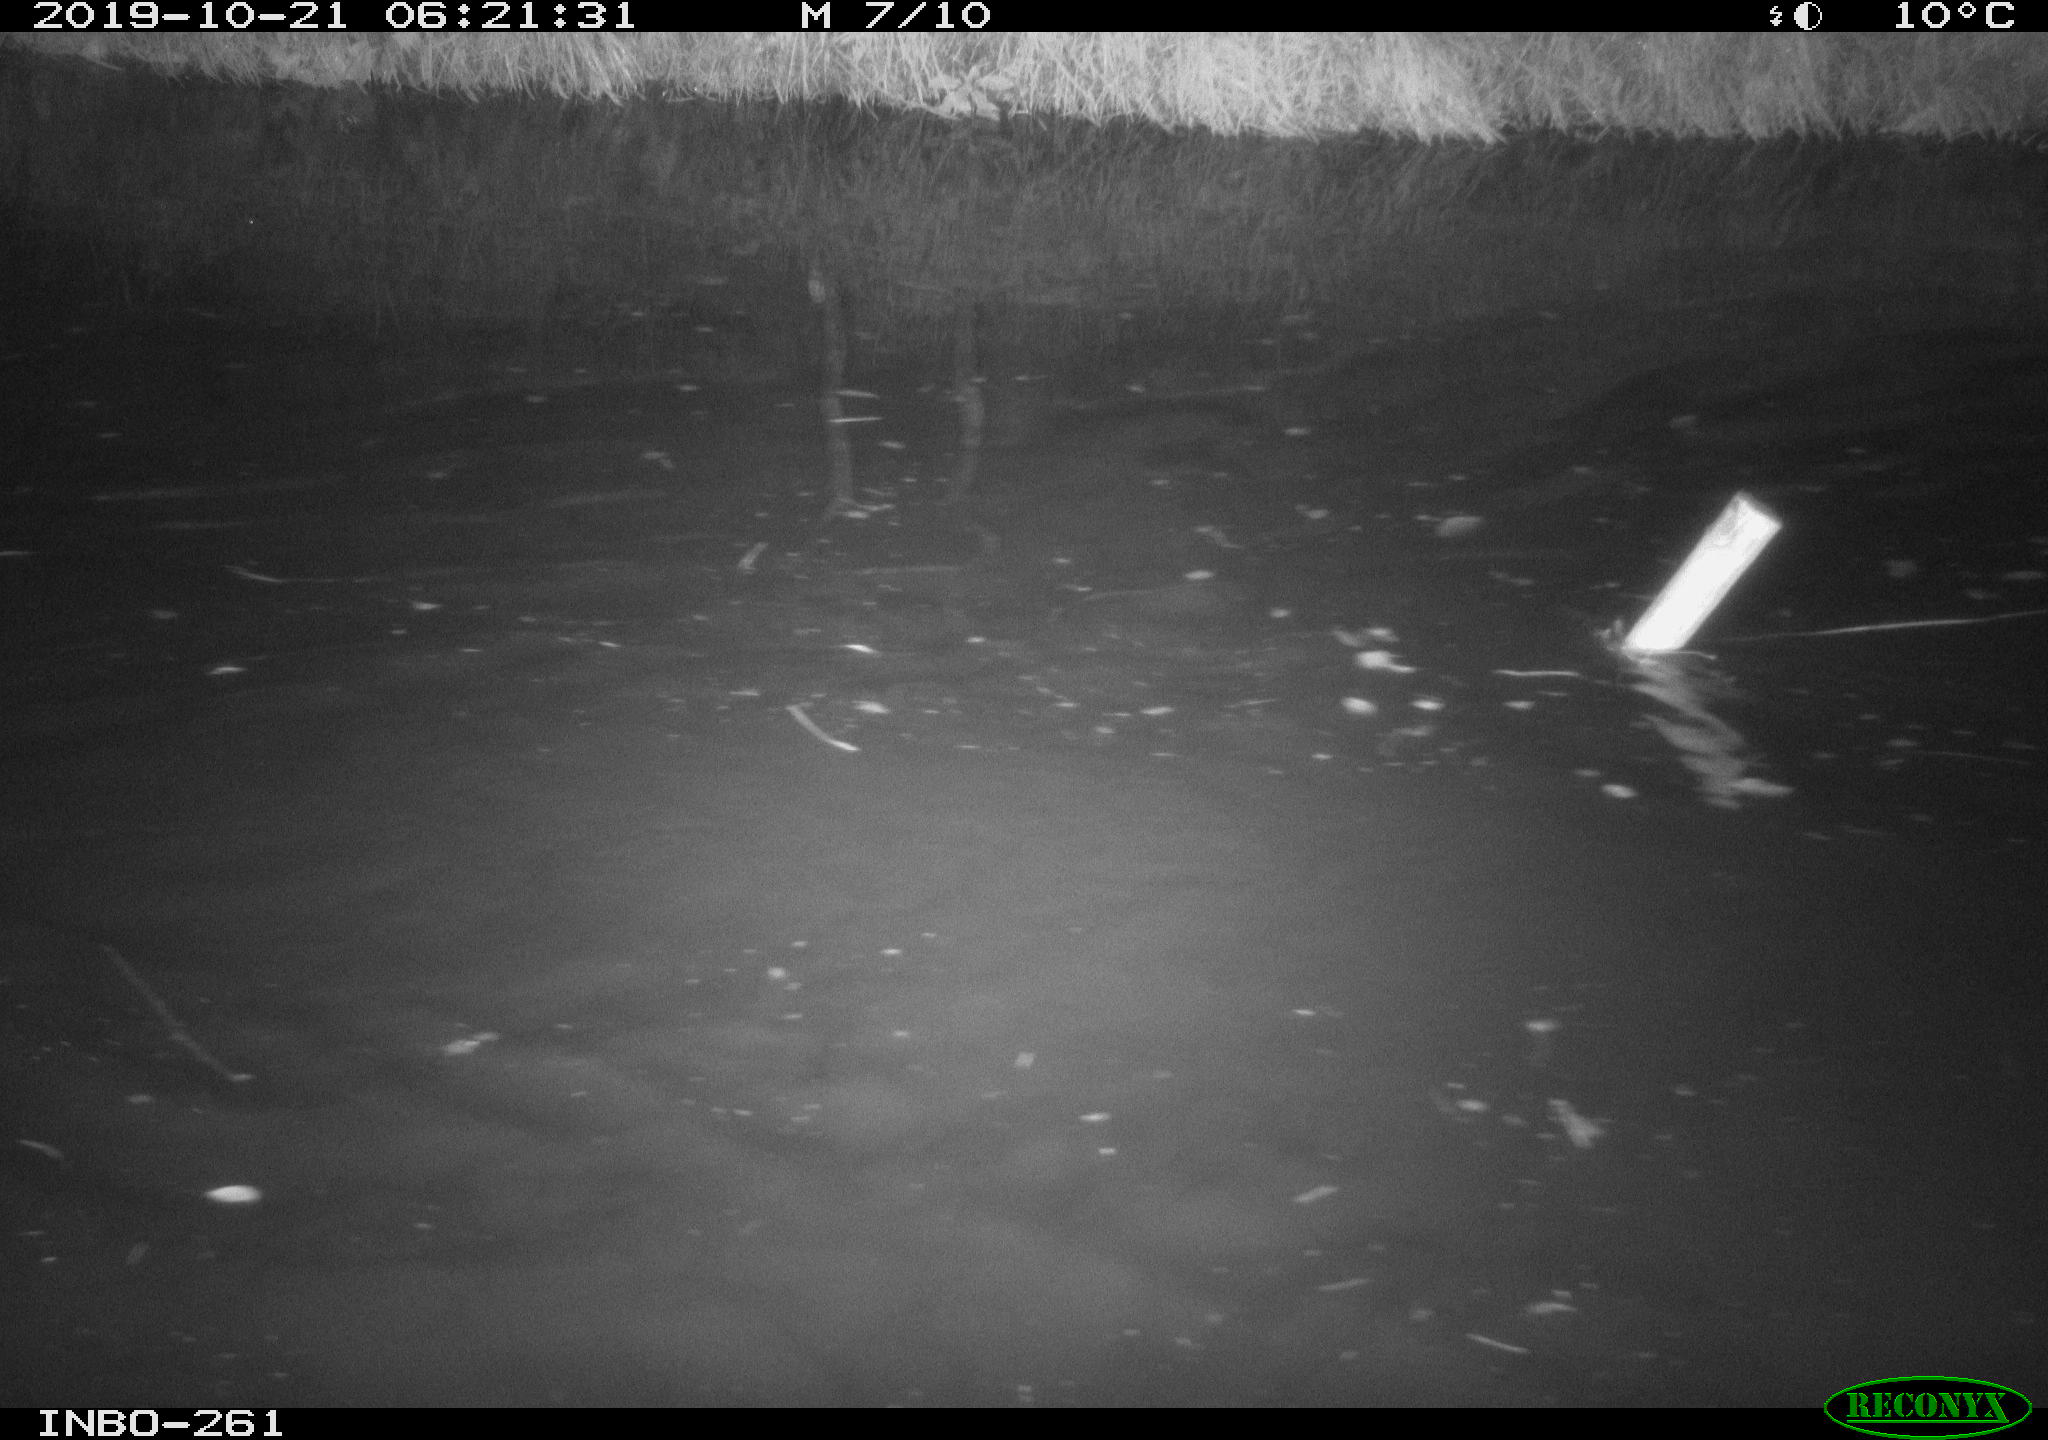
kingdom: Animalia
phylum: Chordata
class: Aves
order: Anseriformes
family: Anatidae
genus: Anas
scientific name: Anas platyrhynchos
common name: Mallard
